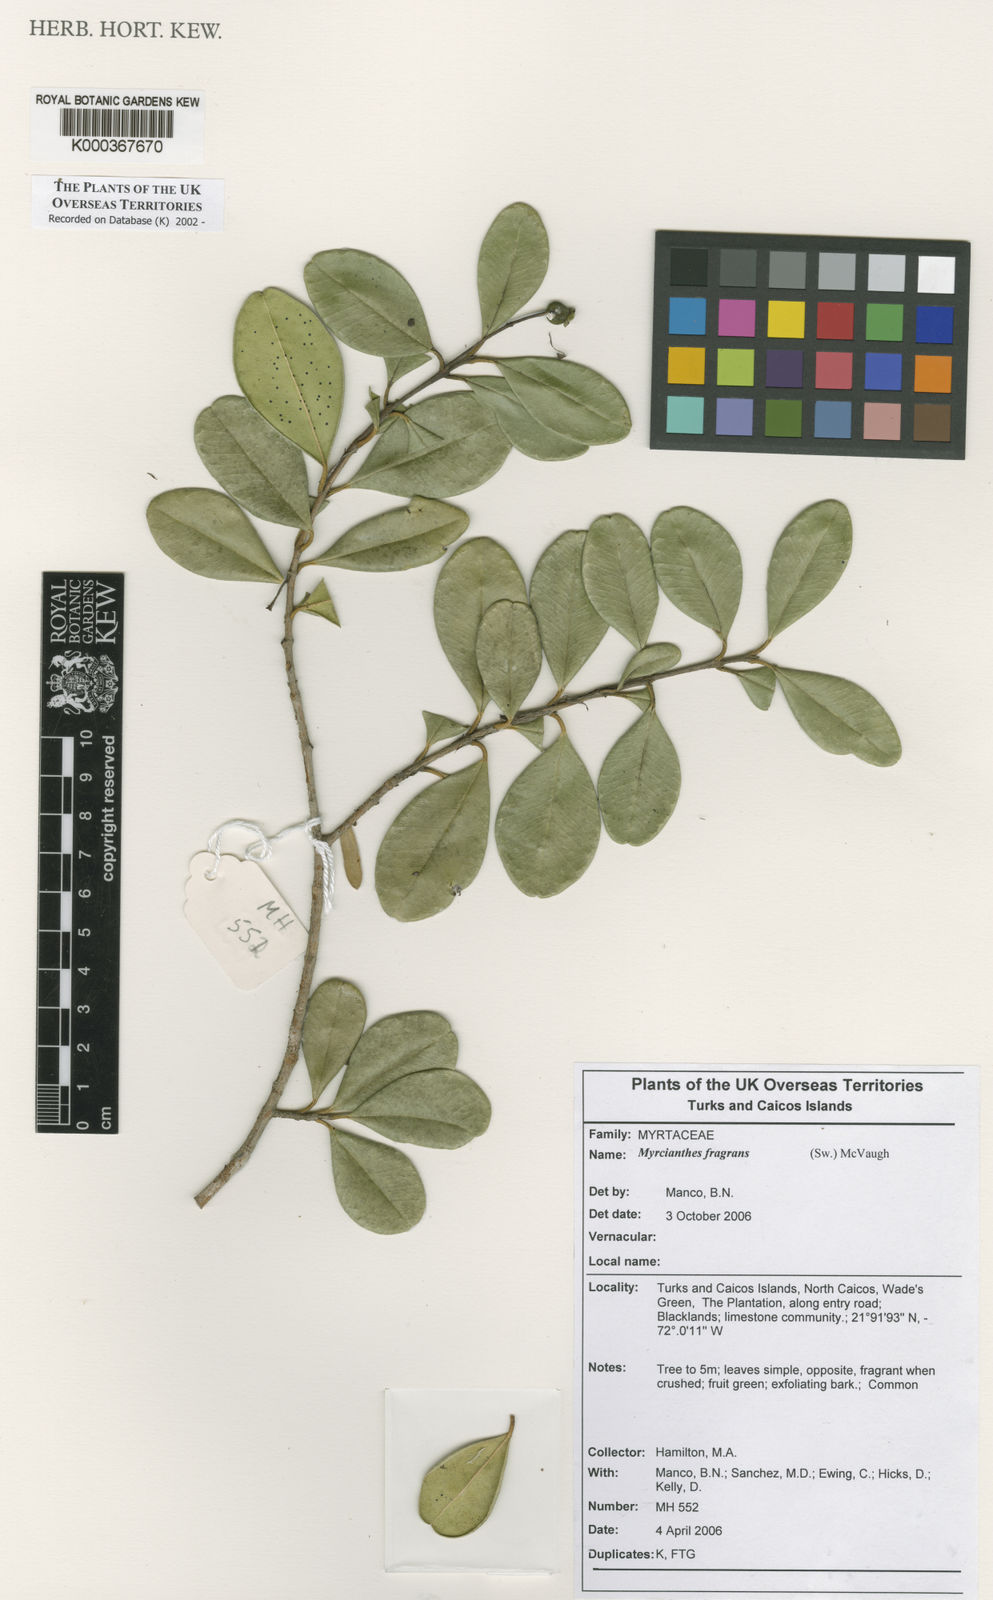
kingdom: Plantae
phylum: Tracheophyta
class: Magnoliopsida
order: Myrtales
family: Myrtaceae
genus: Myrcianthes
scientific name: Myrcianthes fragrans
